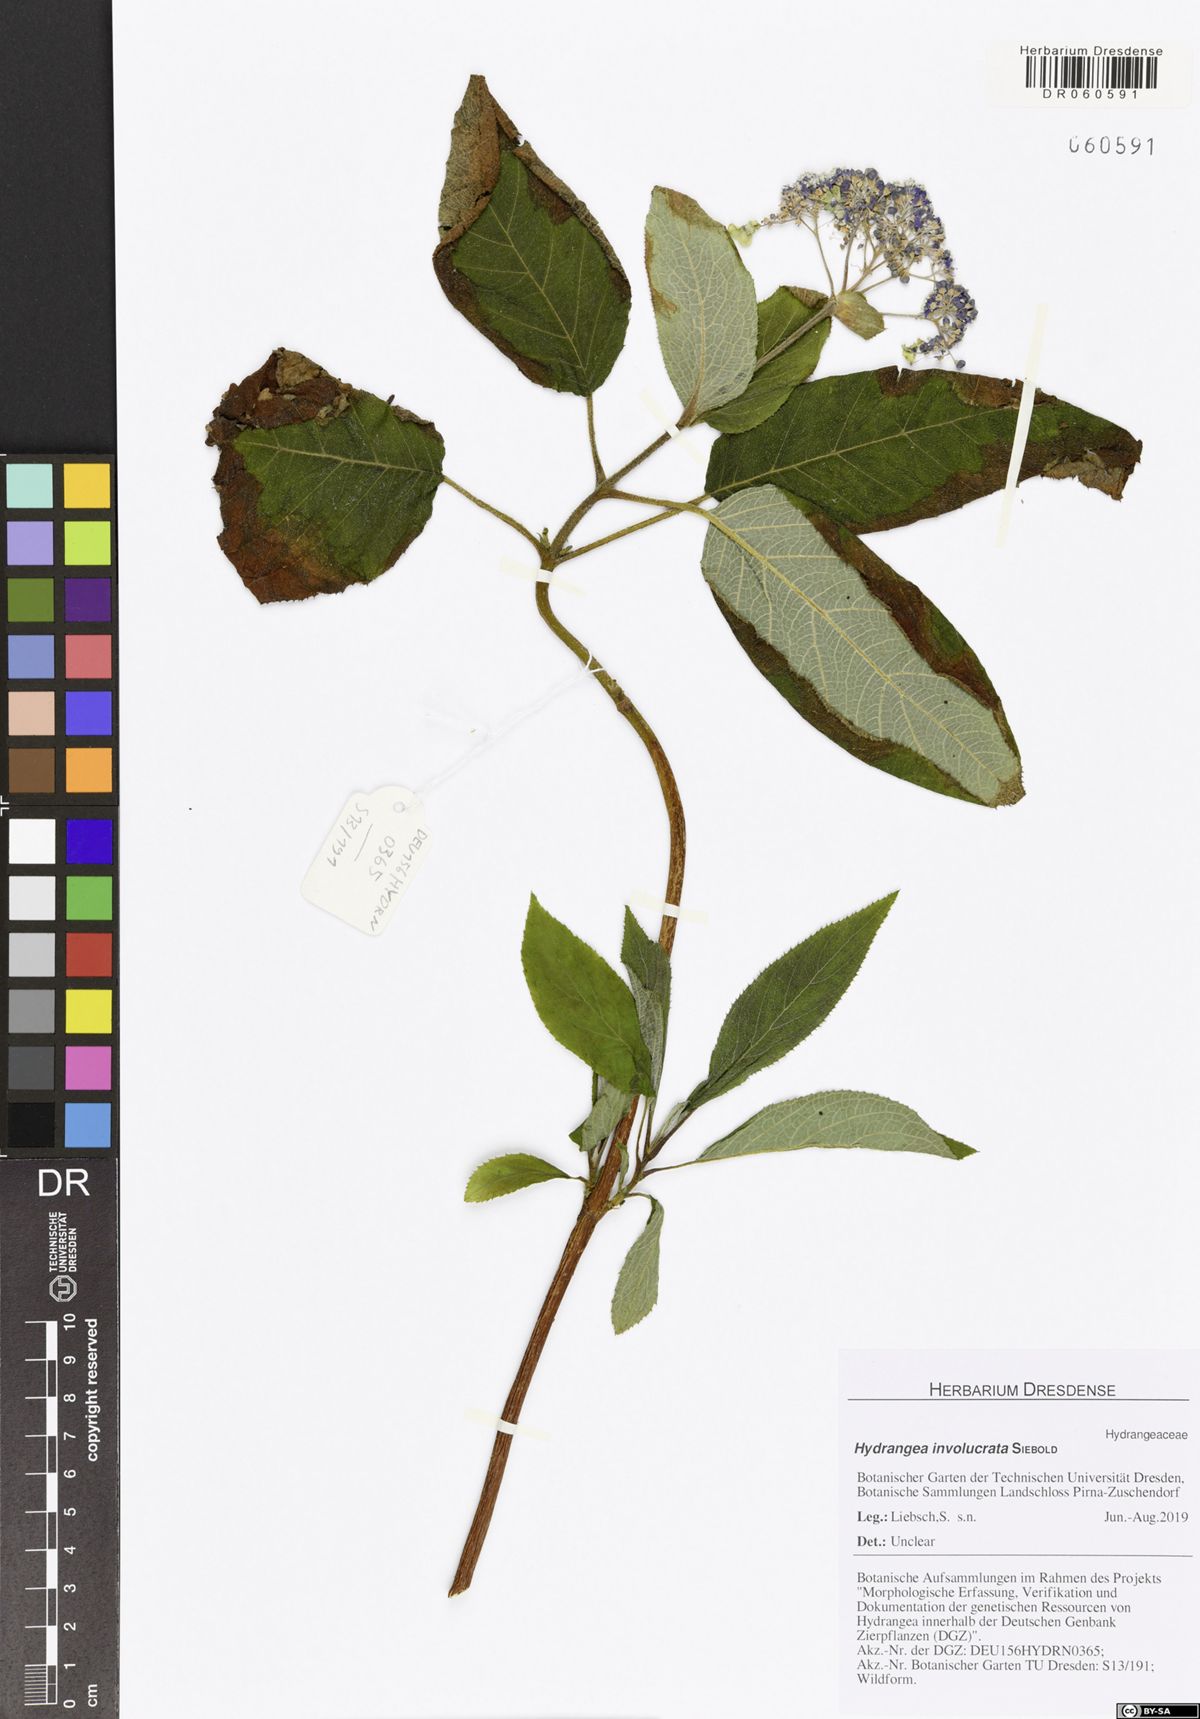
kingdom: Plantae
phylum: Tracheophyta
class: Magnoliopsida
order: Cornales
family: Hydrangeaceae
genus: Hydrangea
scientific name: Hydrangea involucrata
